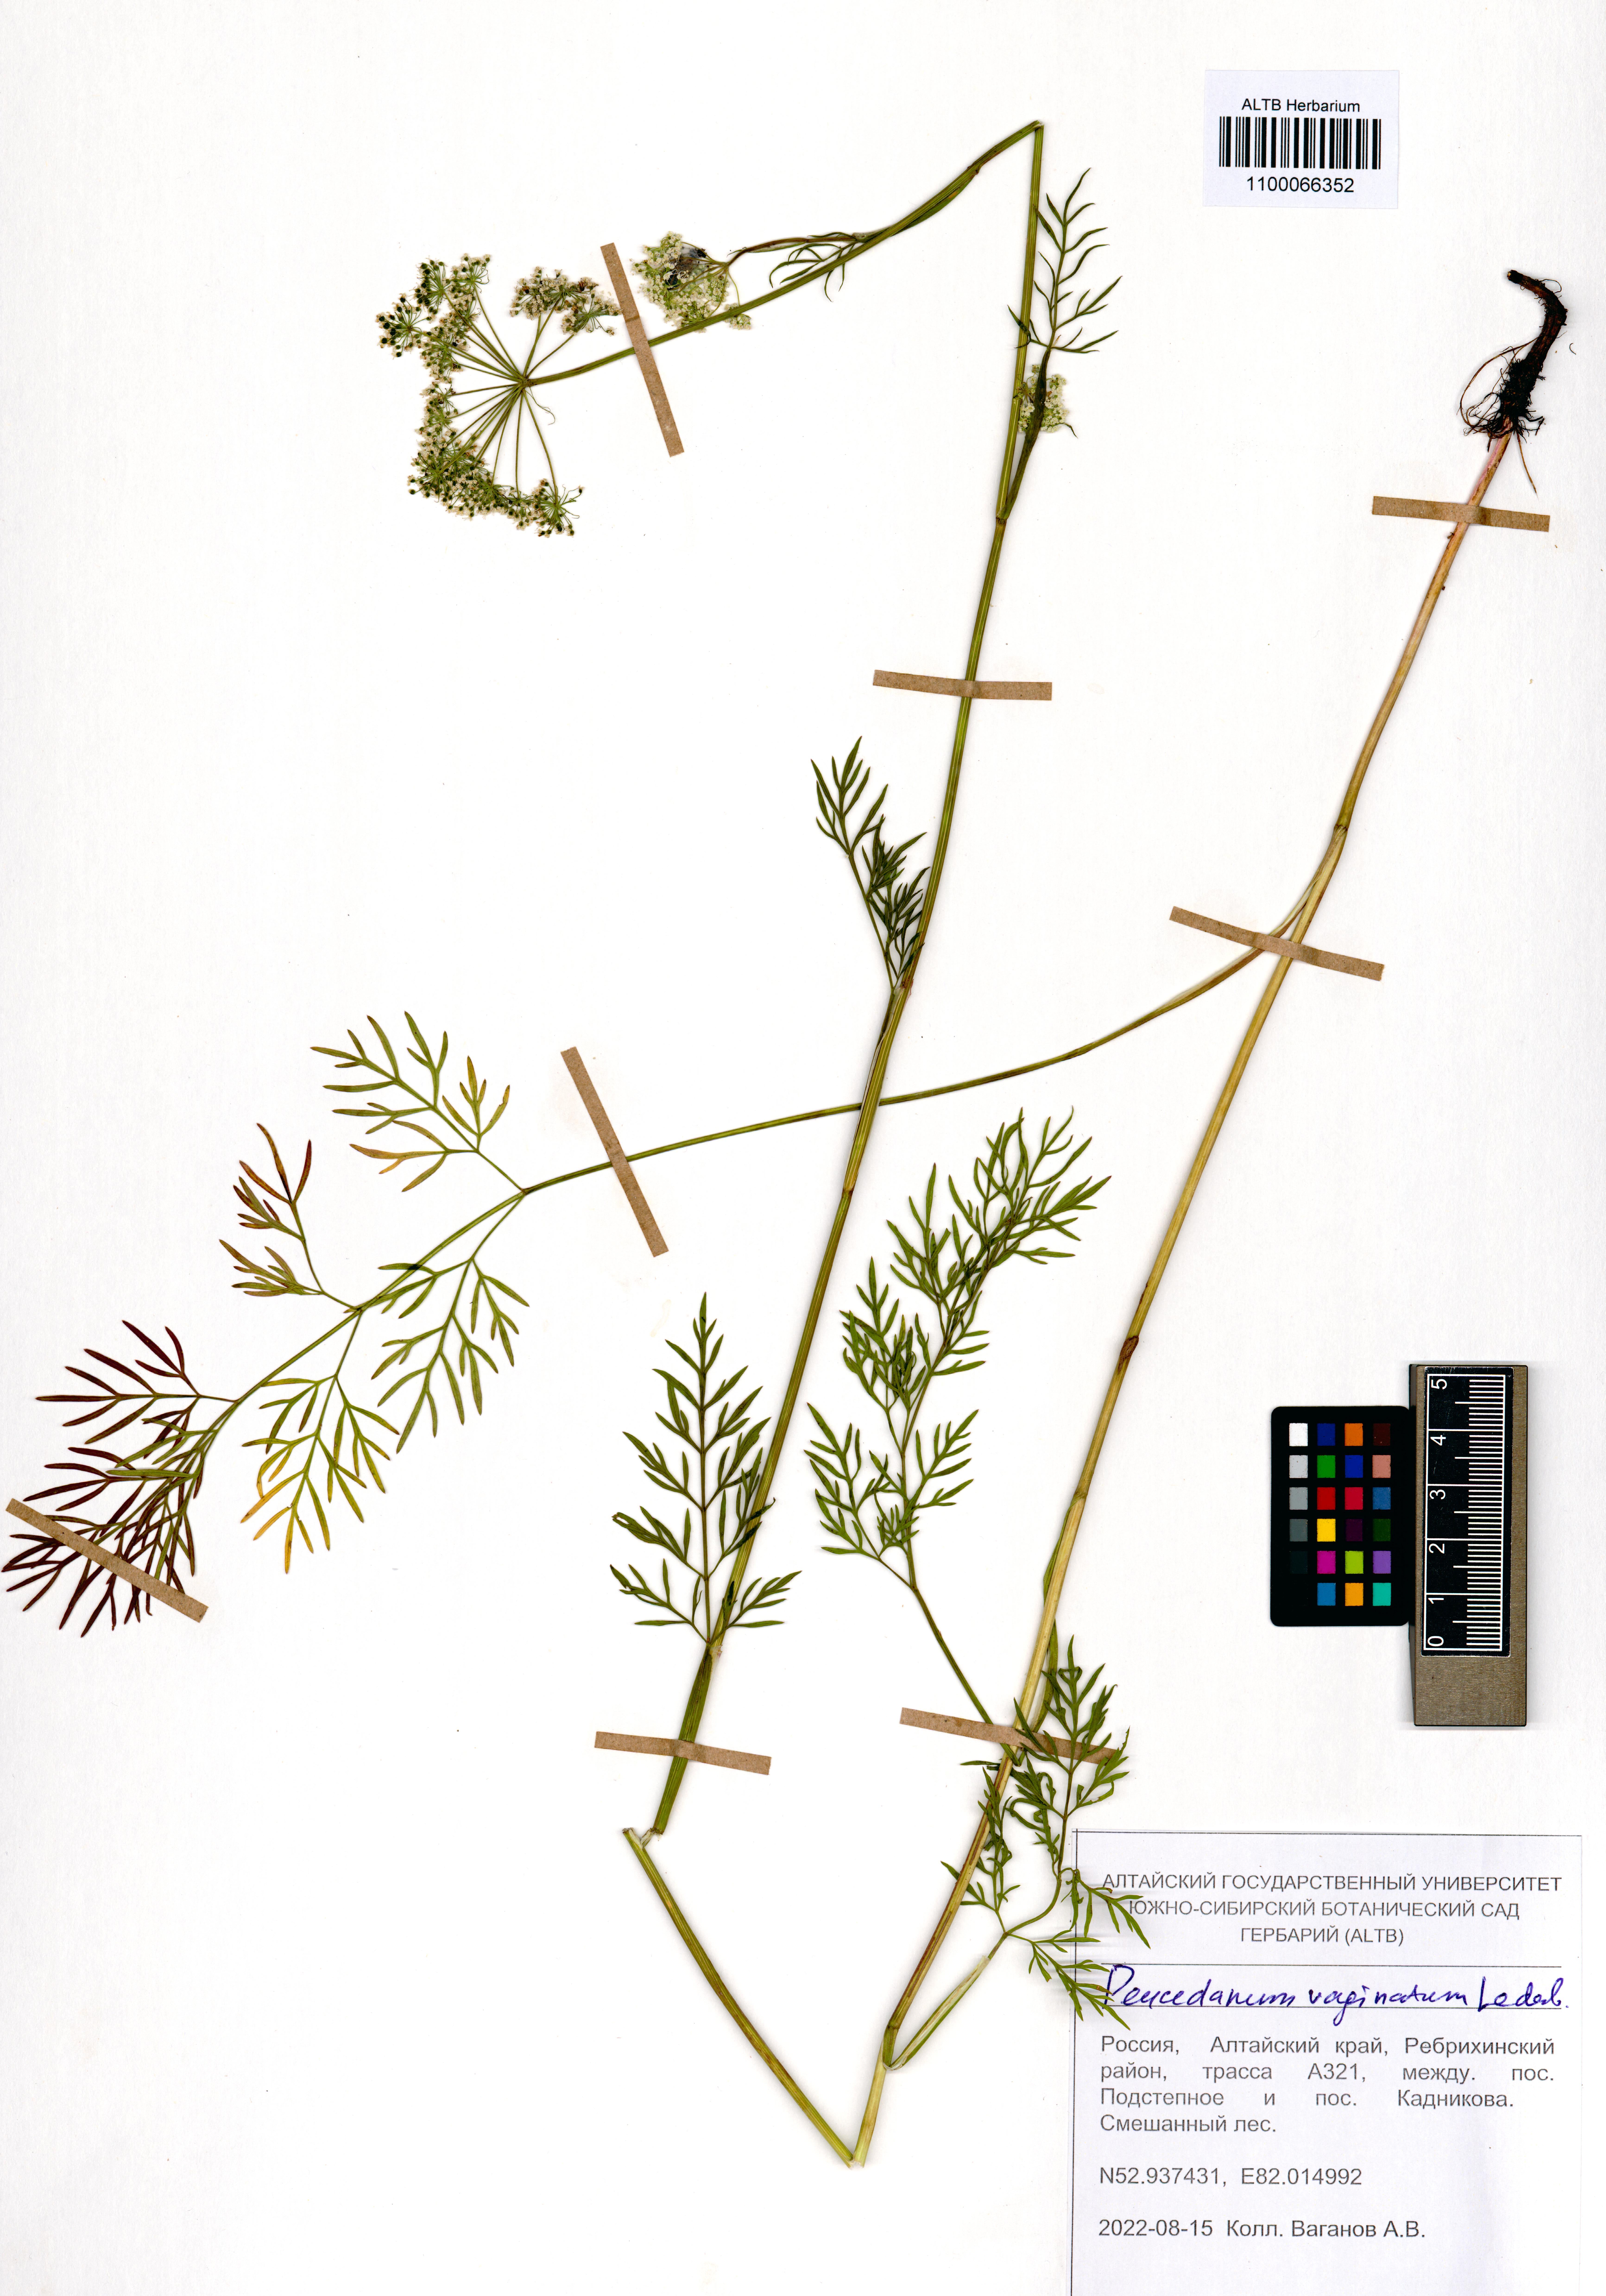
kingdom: Plantae
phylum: Tracheophyta
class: Magnoliopsida
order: Apiales
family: Apiaceae
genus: Peucedanum
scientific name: Peucedanum vaginatum
